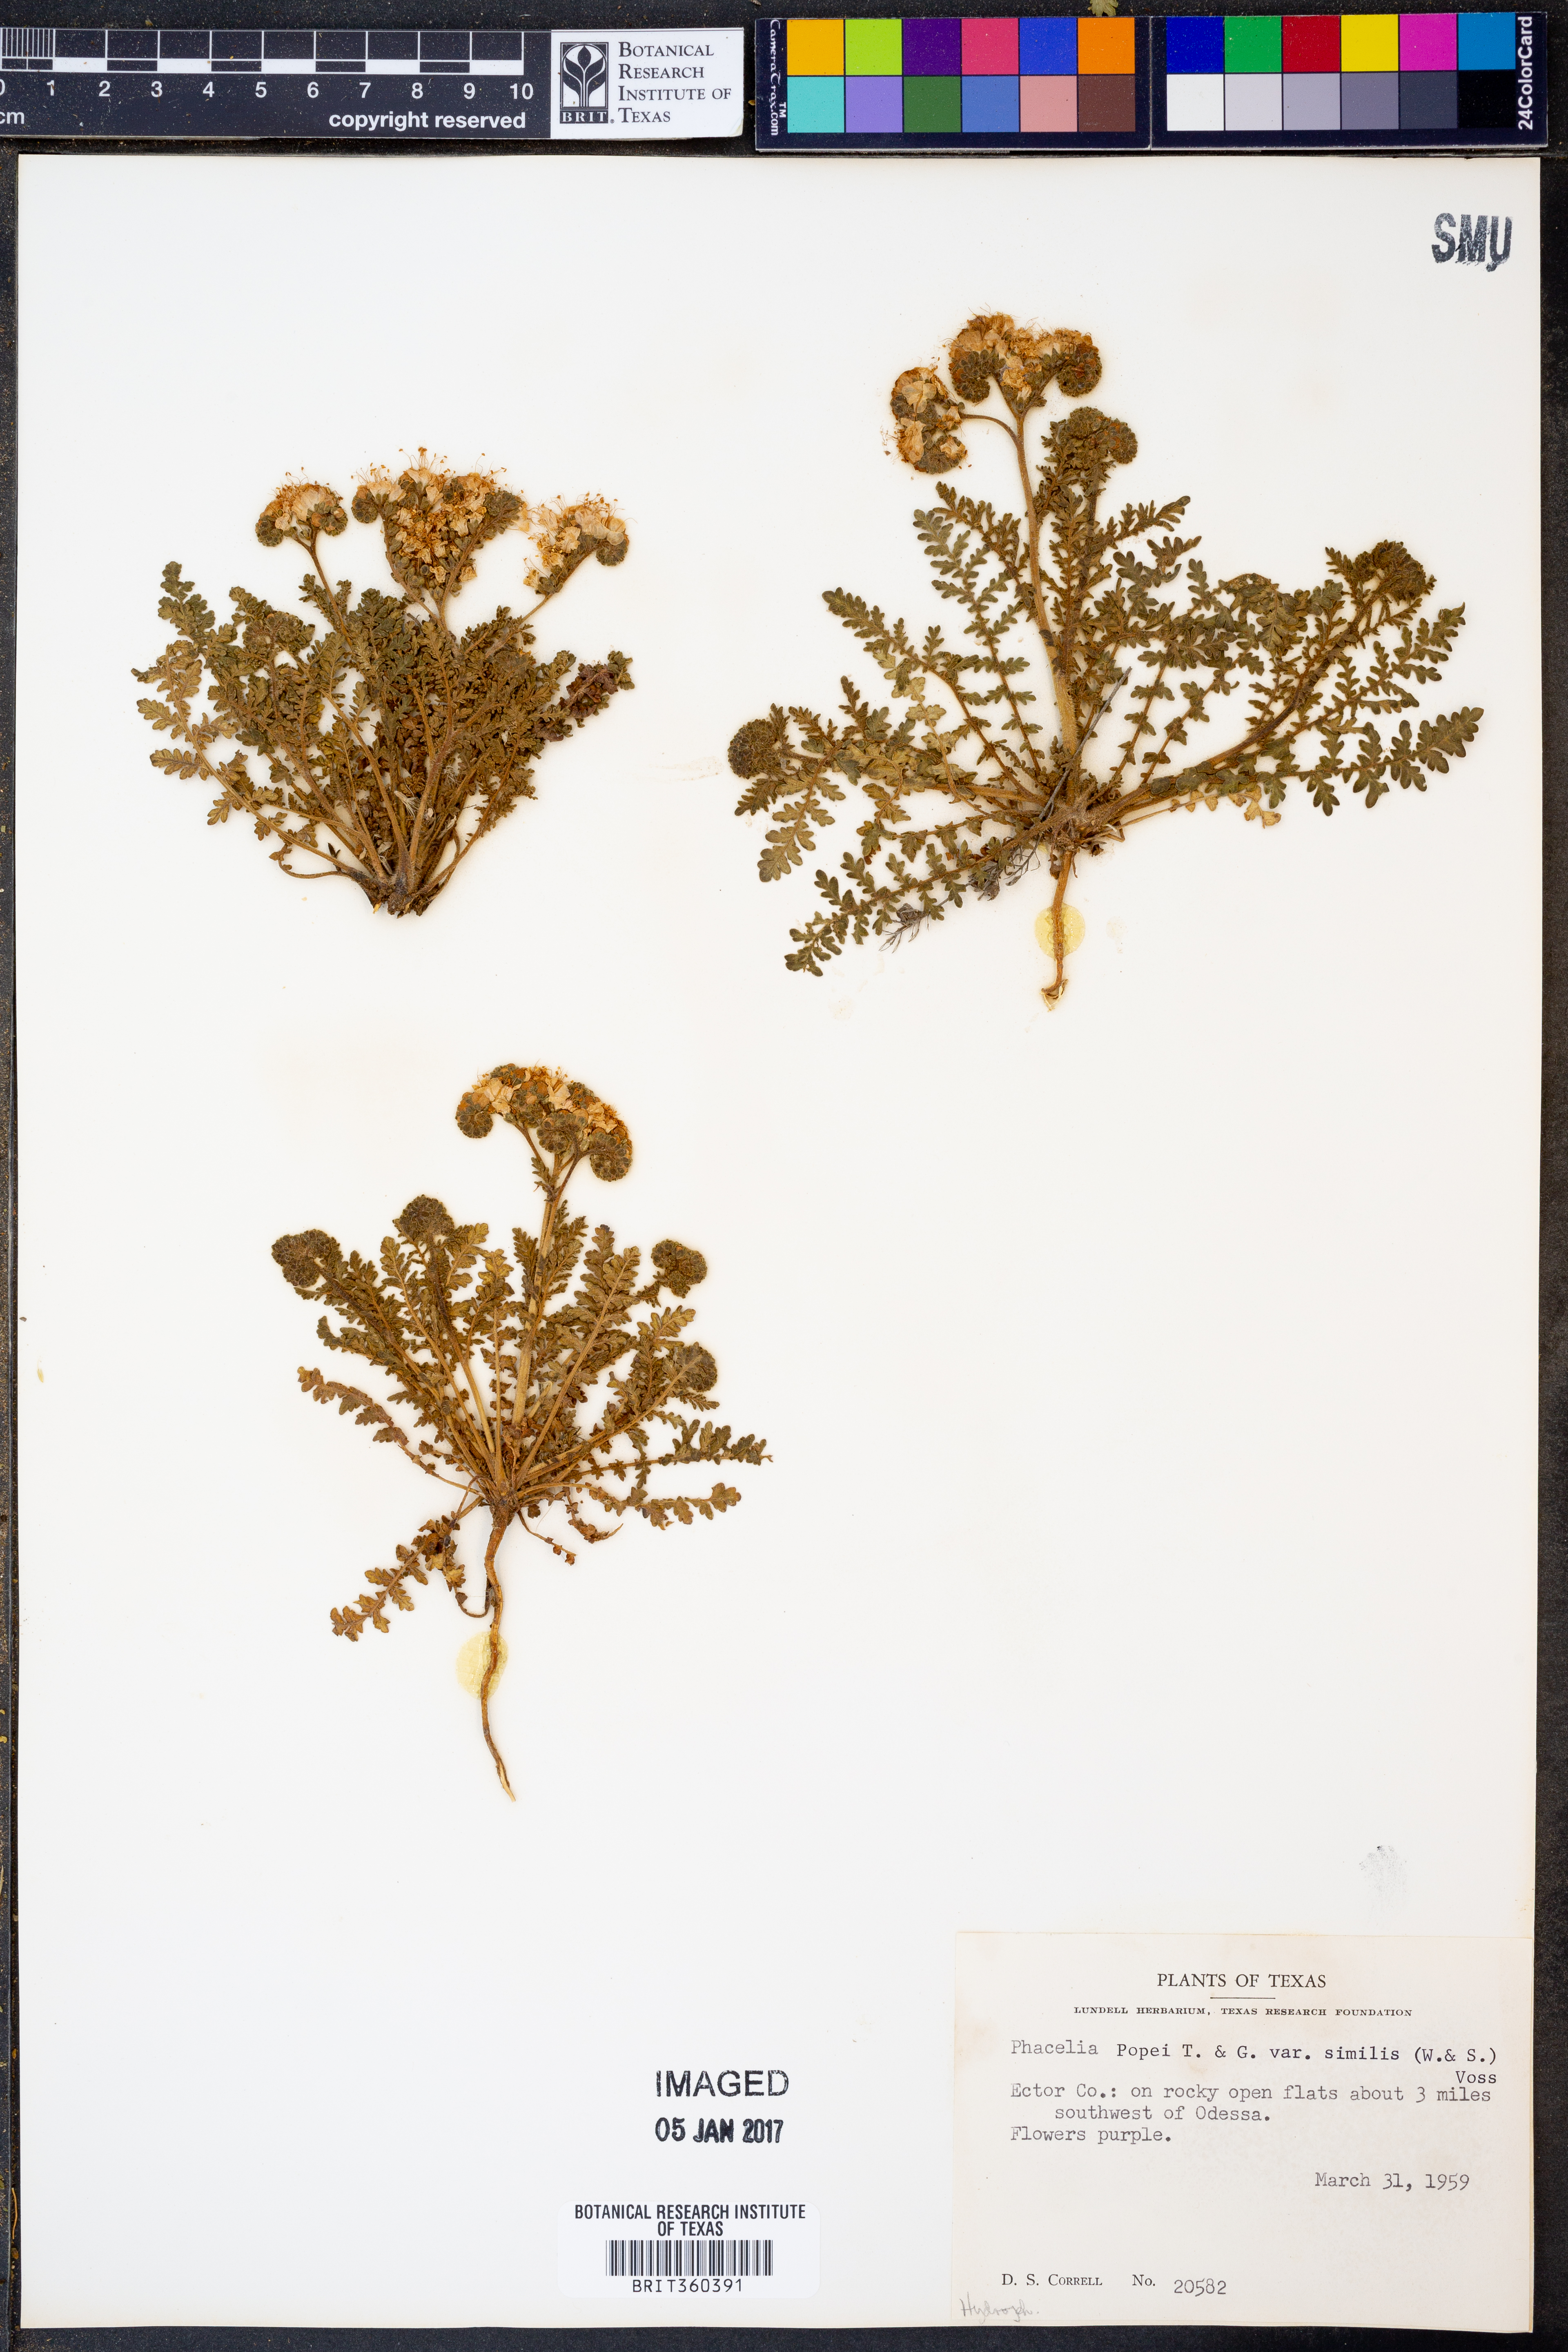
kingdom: Plantae
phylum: Tracheophyta
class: Magnoliopsida
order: Boraginales
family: Hydrophyllaceae
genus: Phacelia
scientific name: Phacelia popei
